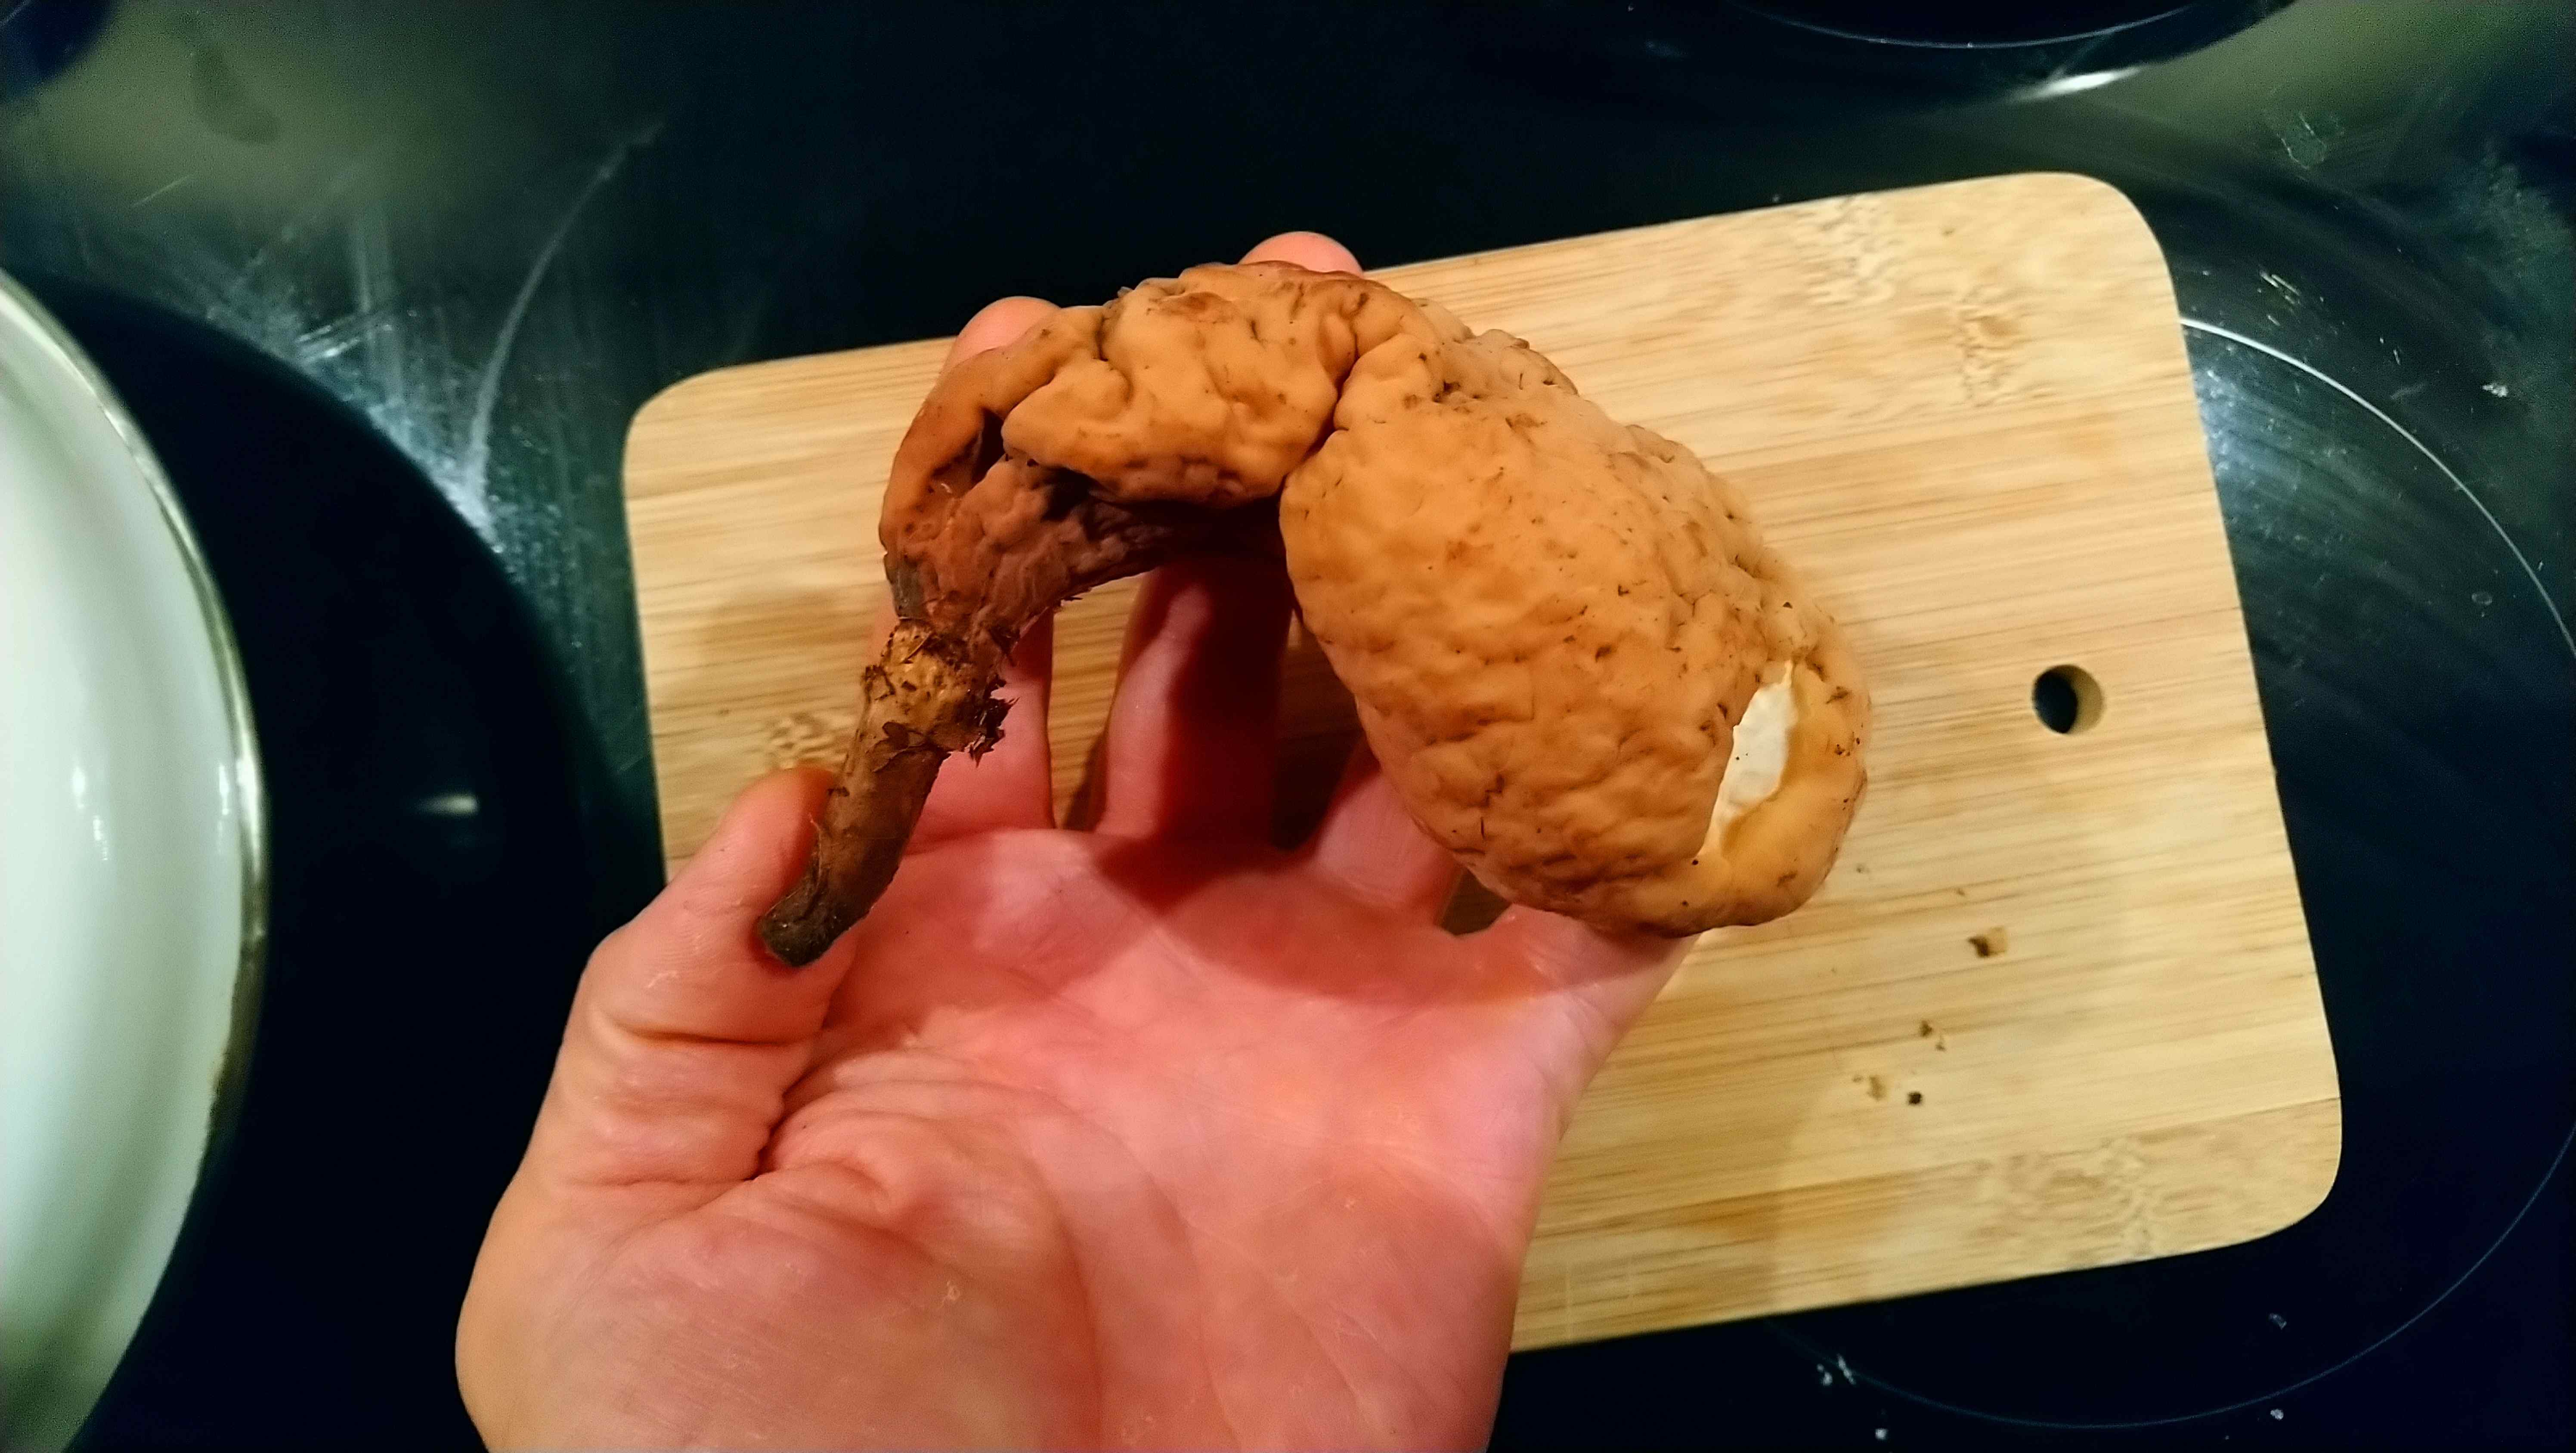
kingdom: Fungi
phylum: Basidiomycota
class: Agaricomycetes
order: Gomphales
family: Clavariadelphaceae
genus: Clavariadelphus
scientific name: Clavariadelphus pistillaris
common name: herkules-kæmpekølle
